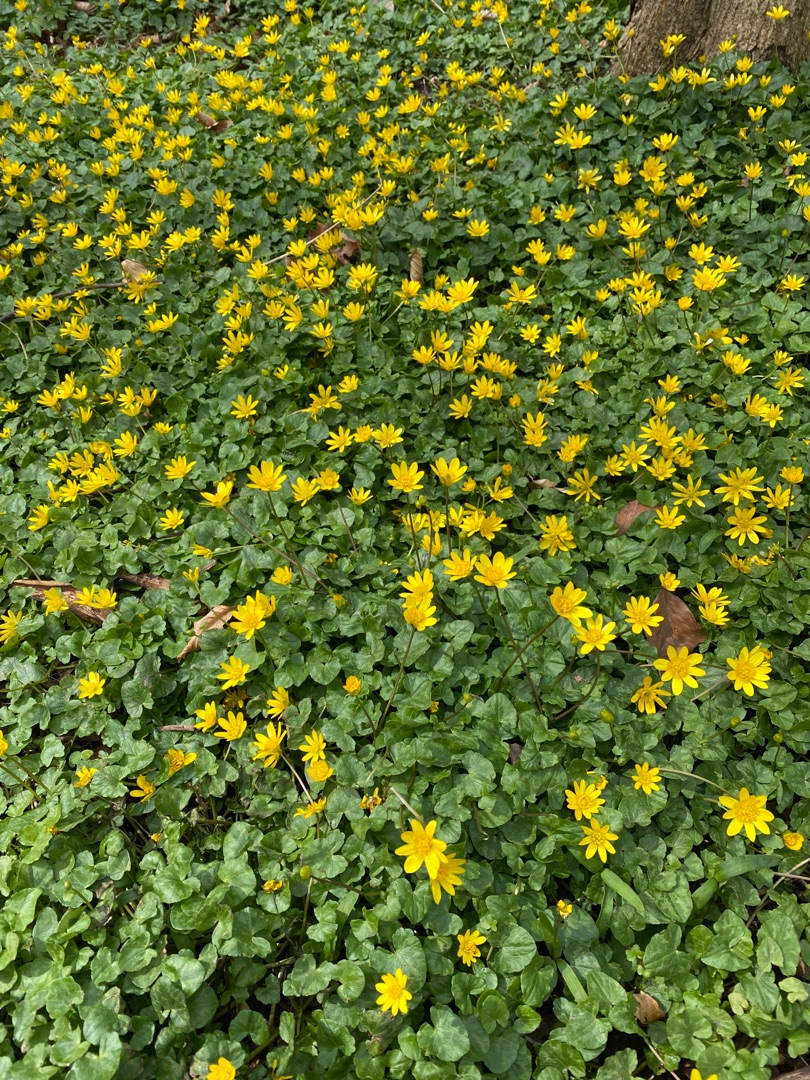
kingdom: Plantae
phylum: Tracheophyta
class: Magnoliopsida
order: Ranunculales
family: Ranunculaceae
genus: Ficaria
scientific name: Ficaria verna
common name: Vorterod
